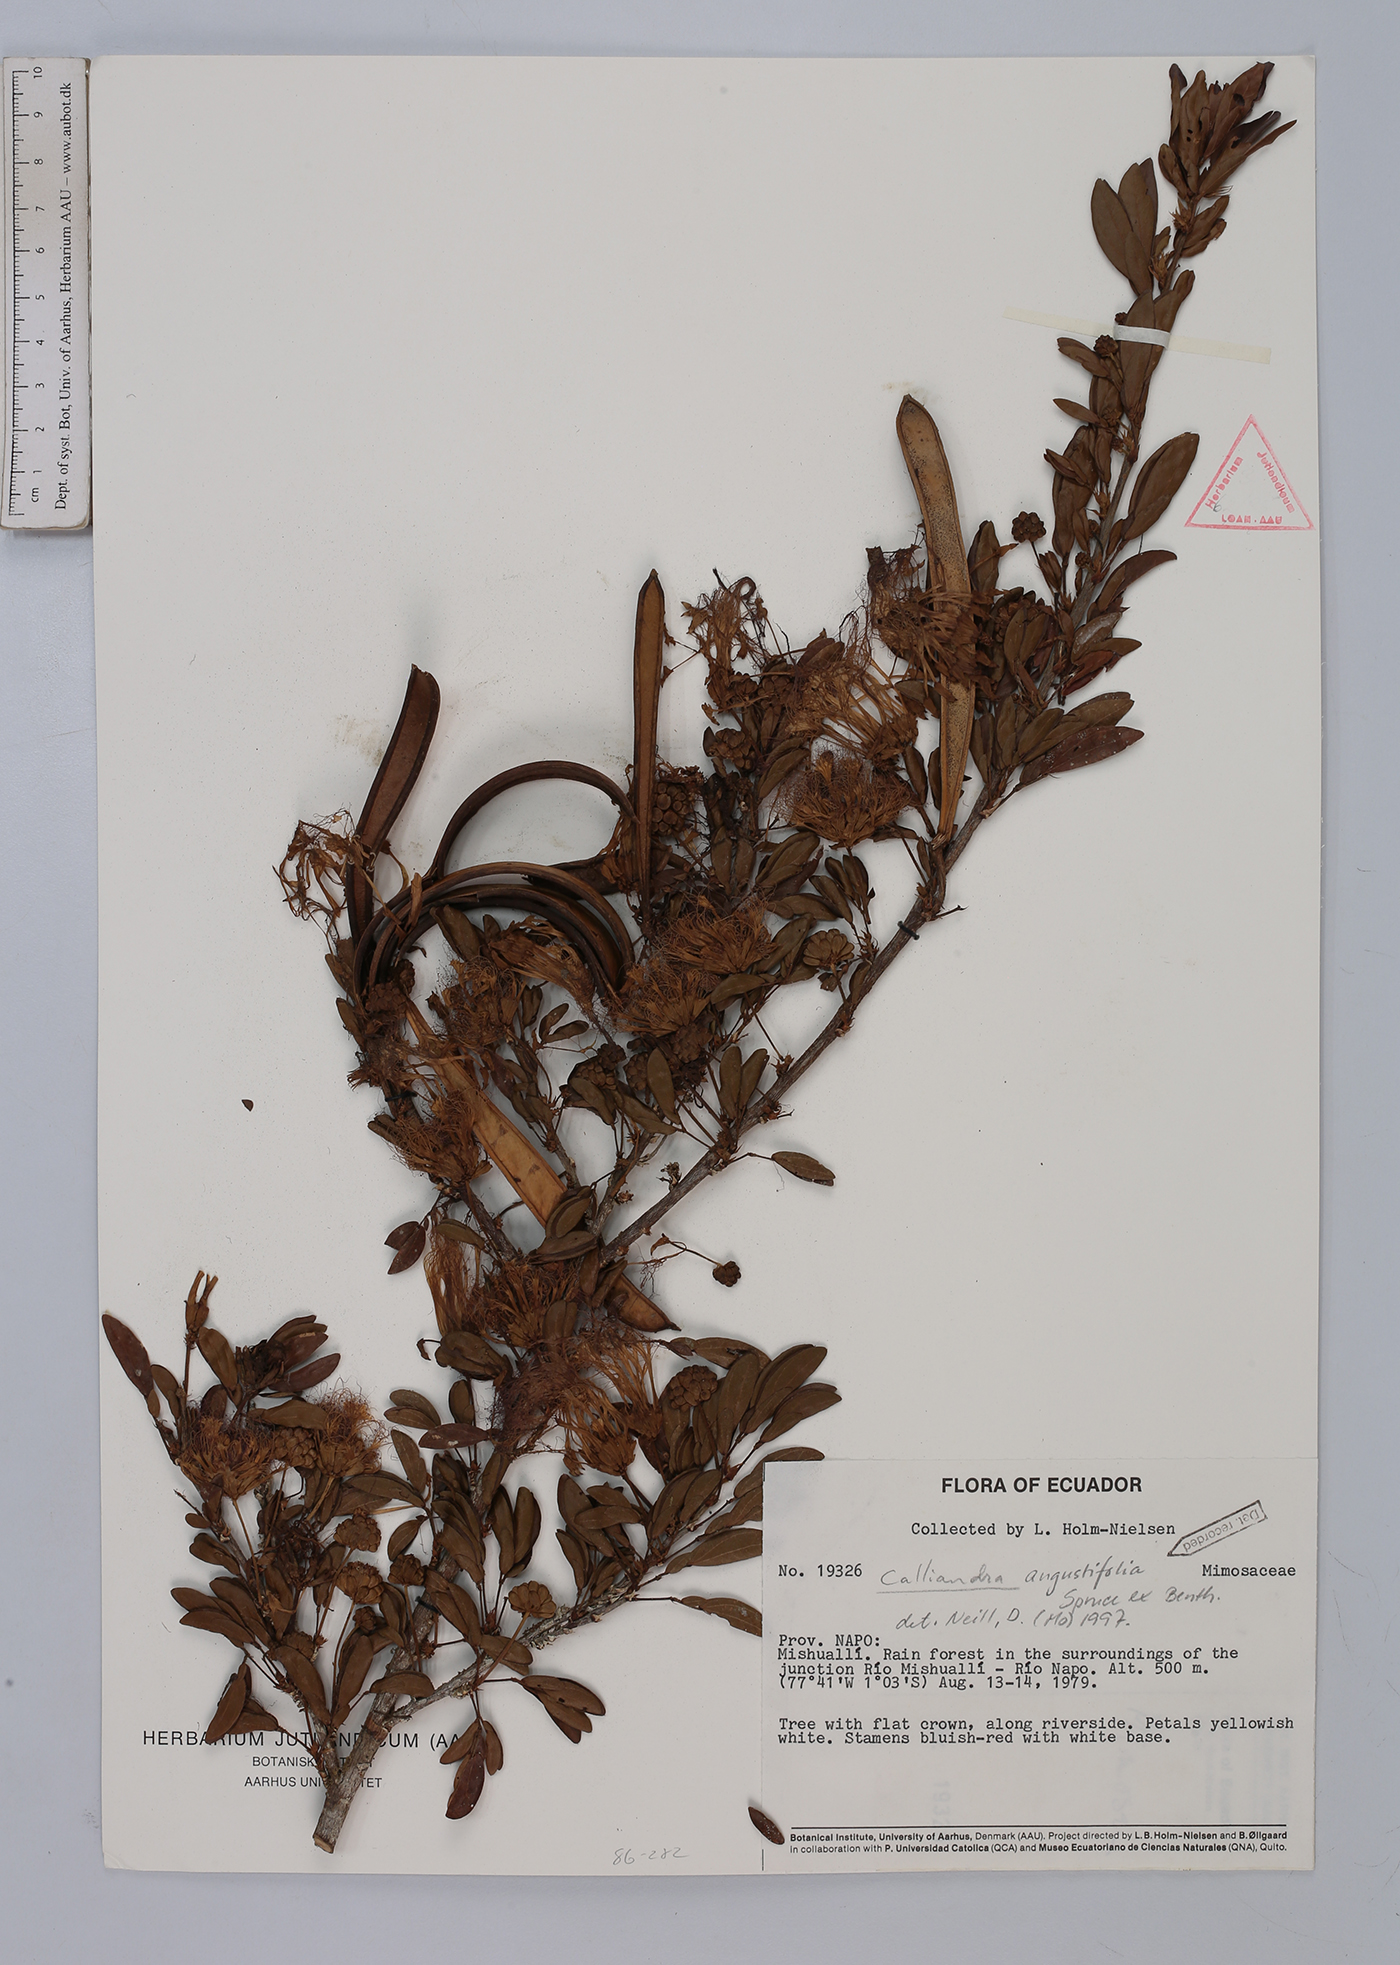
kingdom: Plantae
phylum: Tracheophyta
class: Magnoliopsida
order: Fabales
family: Fabaceae
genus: Calliandra
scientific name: Calliandra angustifolia
